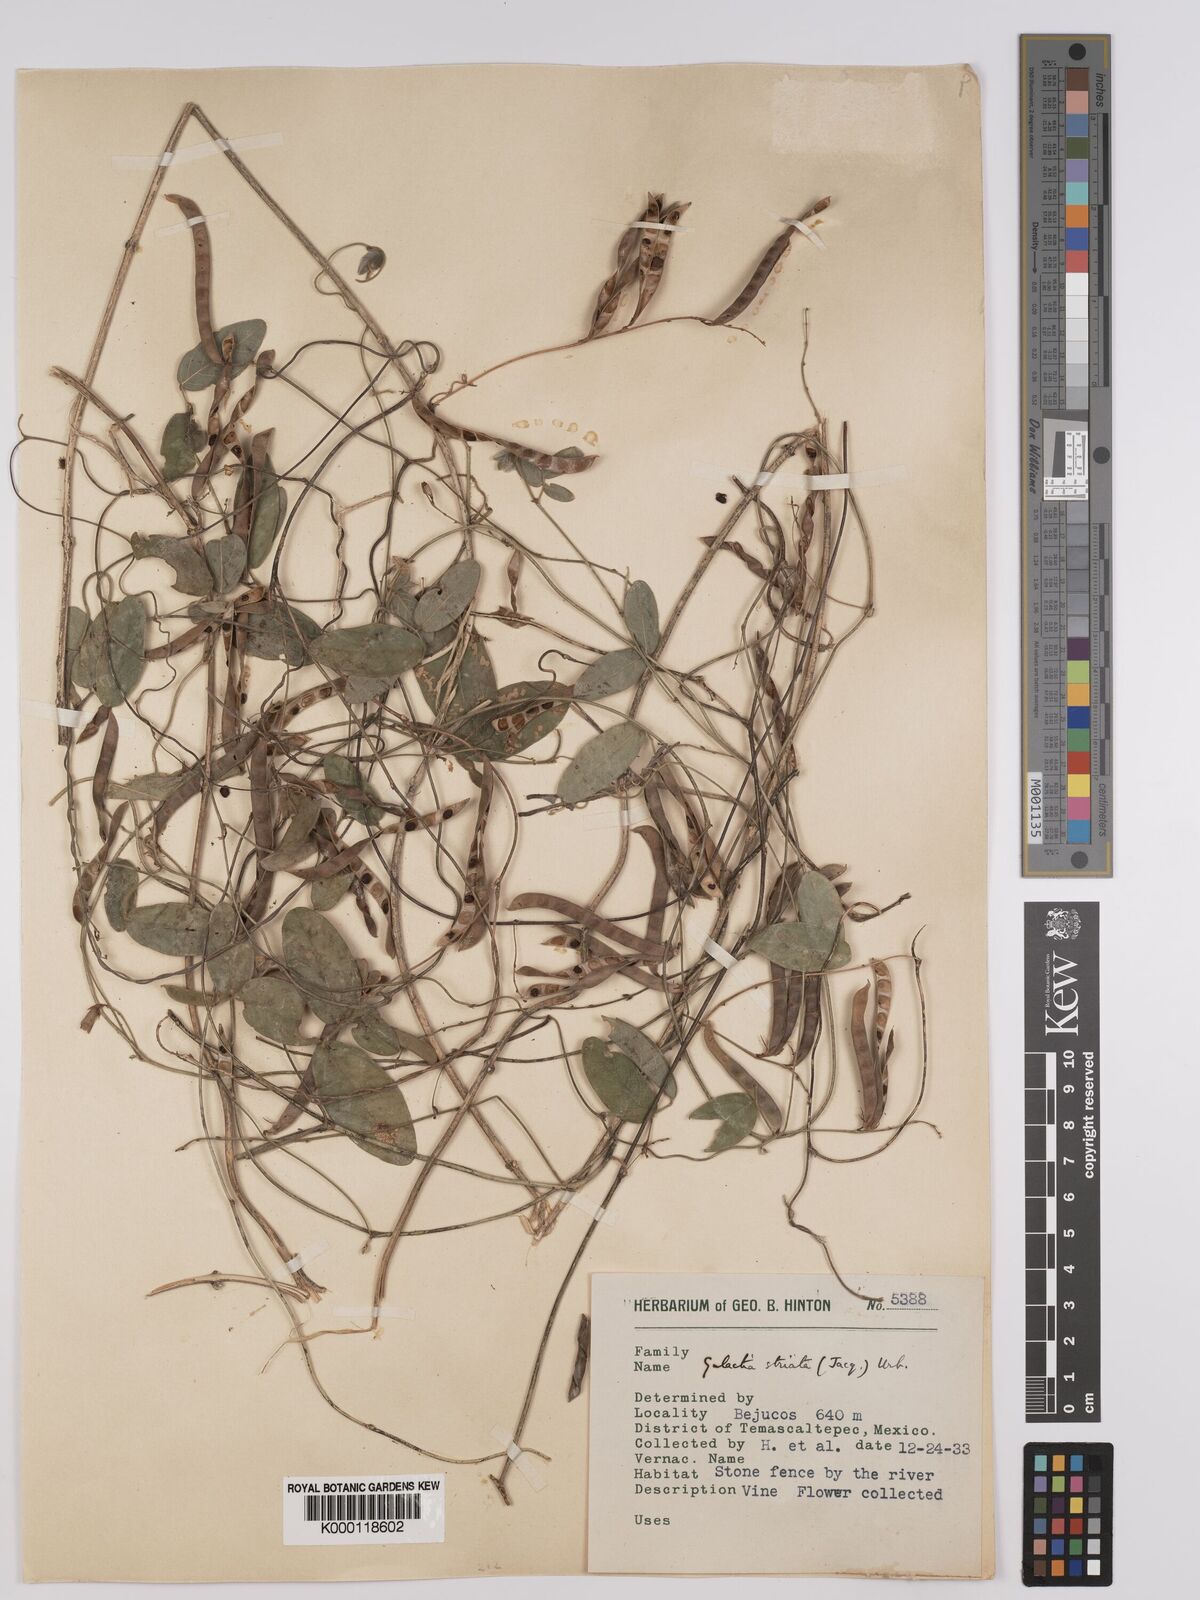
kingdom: Plantae
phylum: Tracheophyta
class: Magnoliopsida
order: Fabales
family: Fabaceae
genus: Galactia
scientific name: Galactia striata
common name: Florida hammock milkpea
